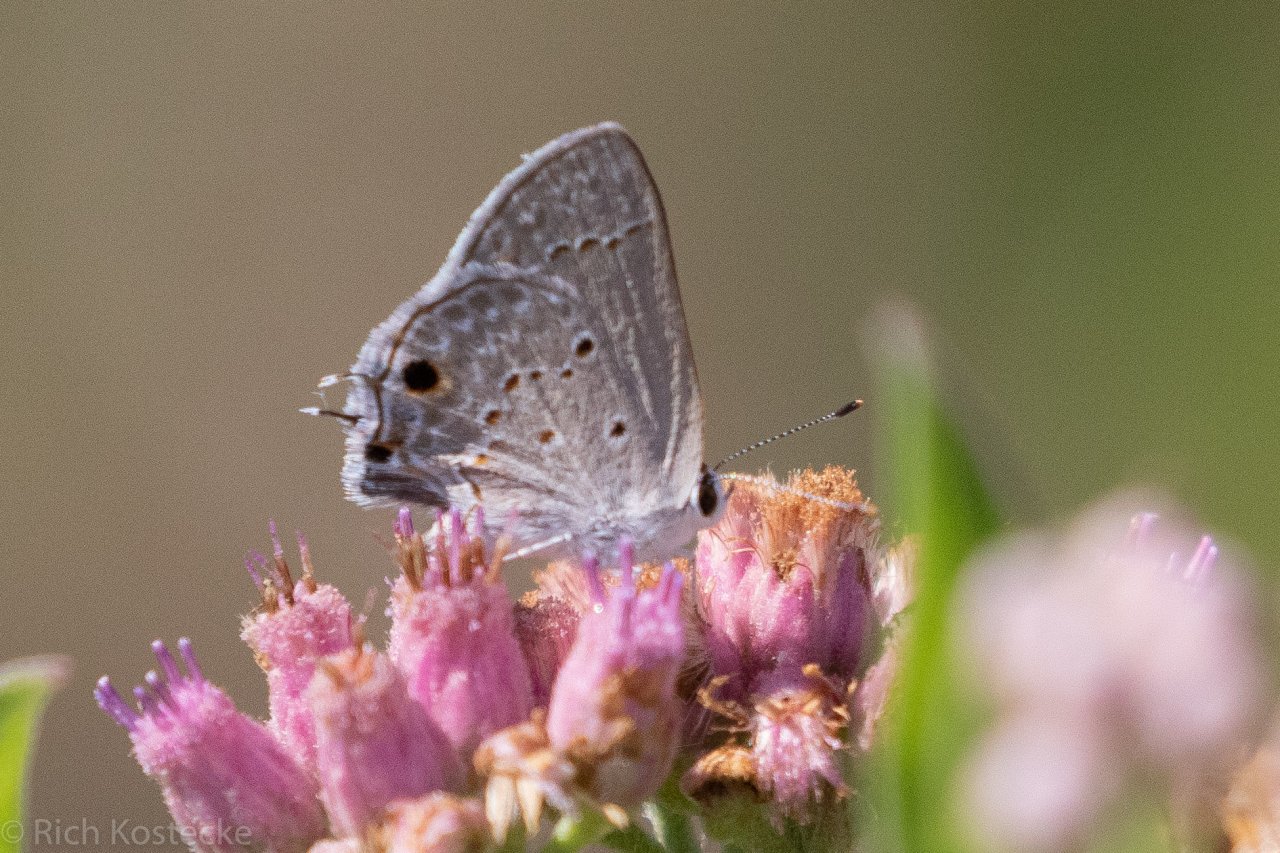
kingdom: Animalia
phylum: Arthropoda
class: Insecta
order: Lepidoptera
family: Lycaenidae
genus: Callicista
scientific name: Callicista columella
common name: Mallow Scrub-Hairstreak
